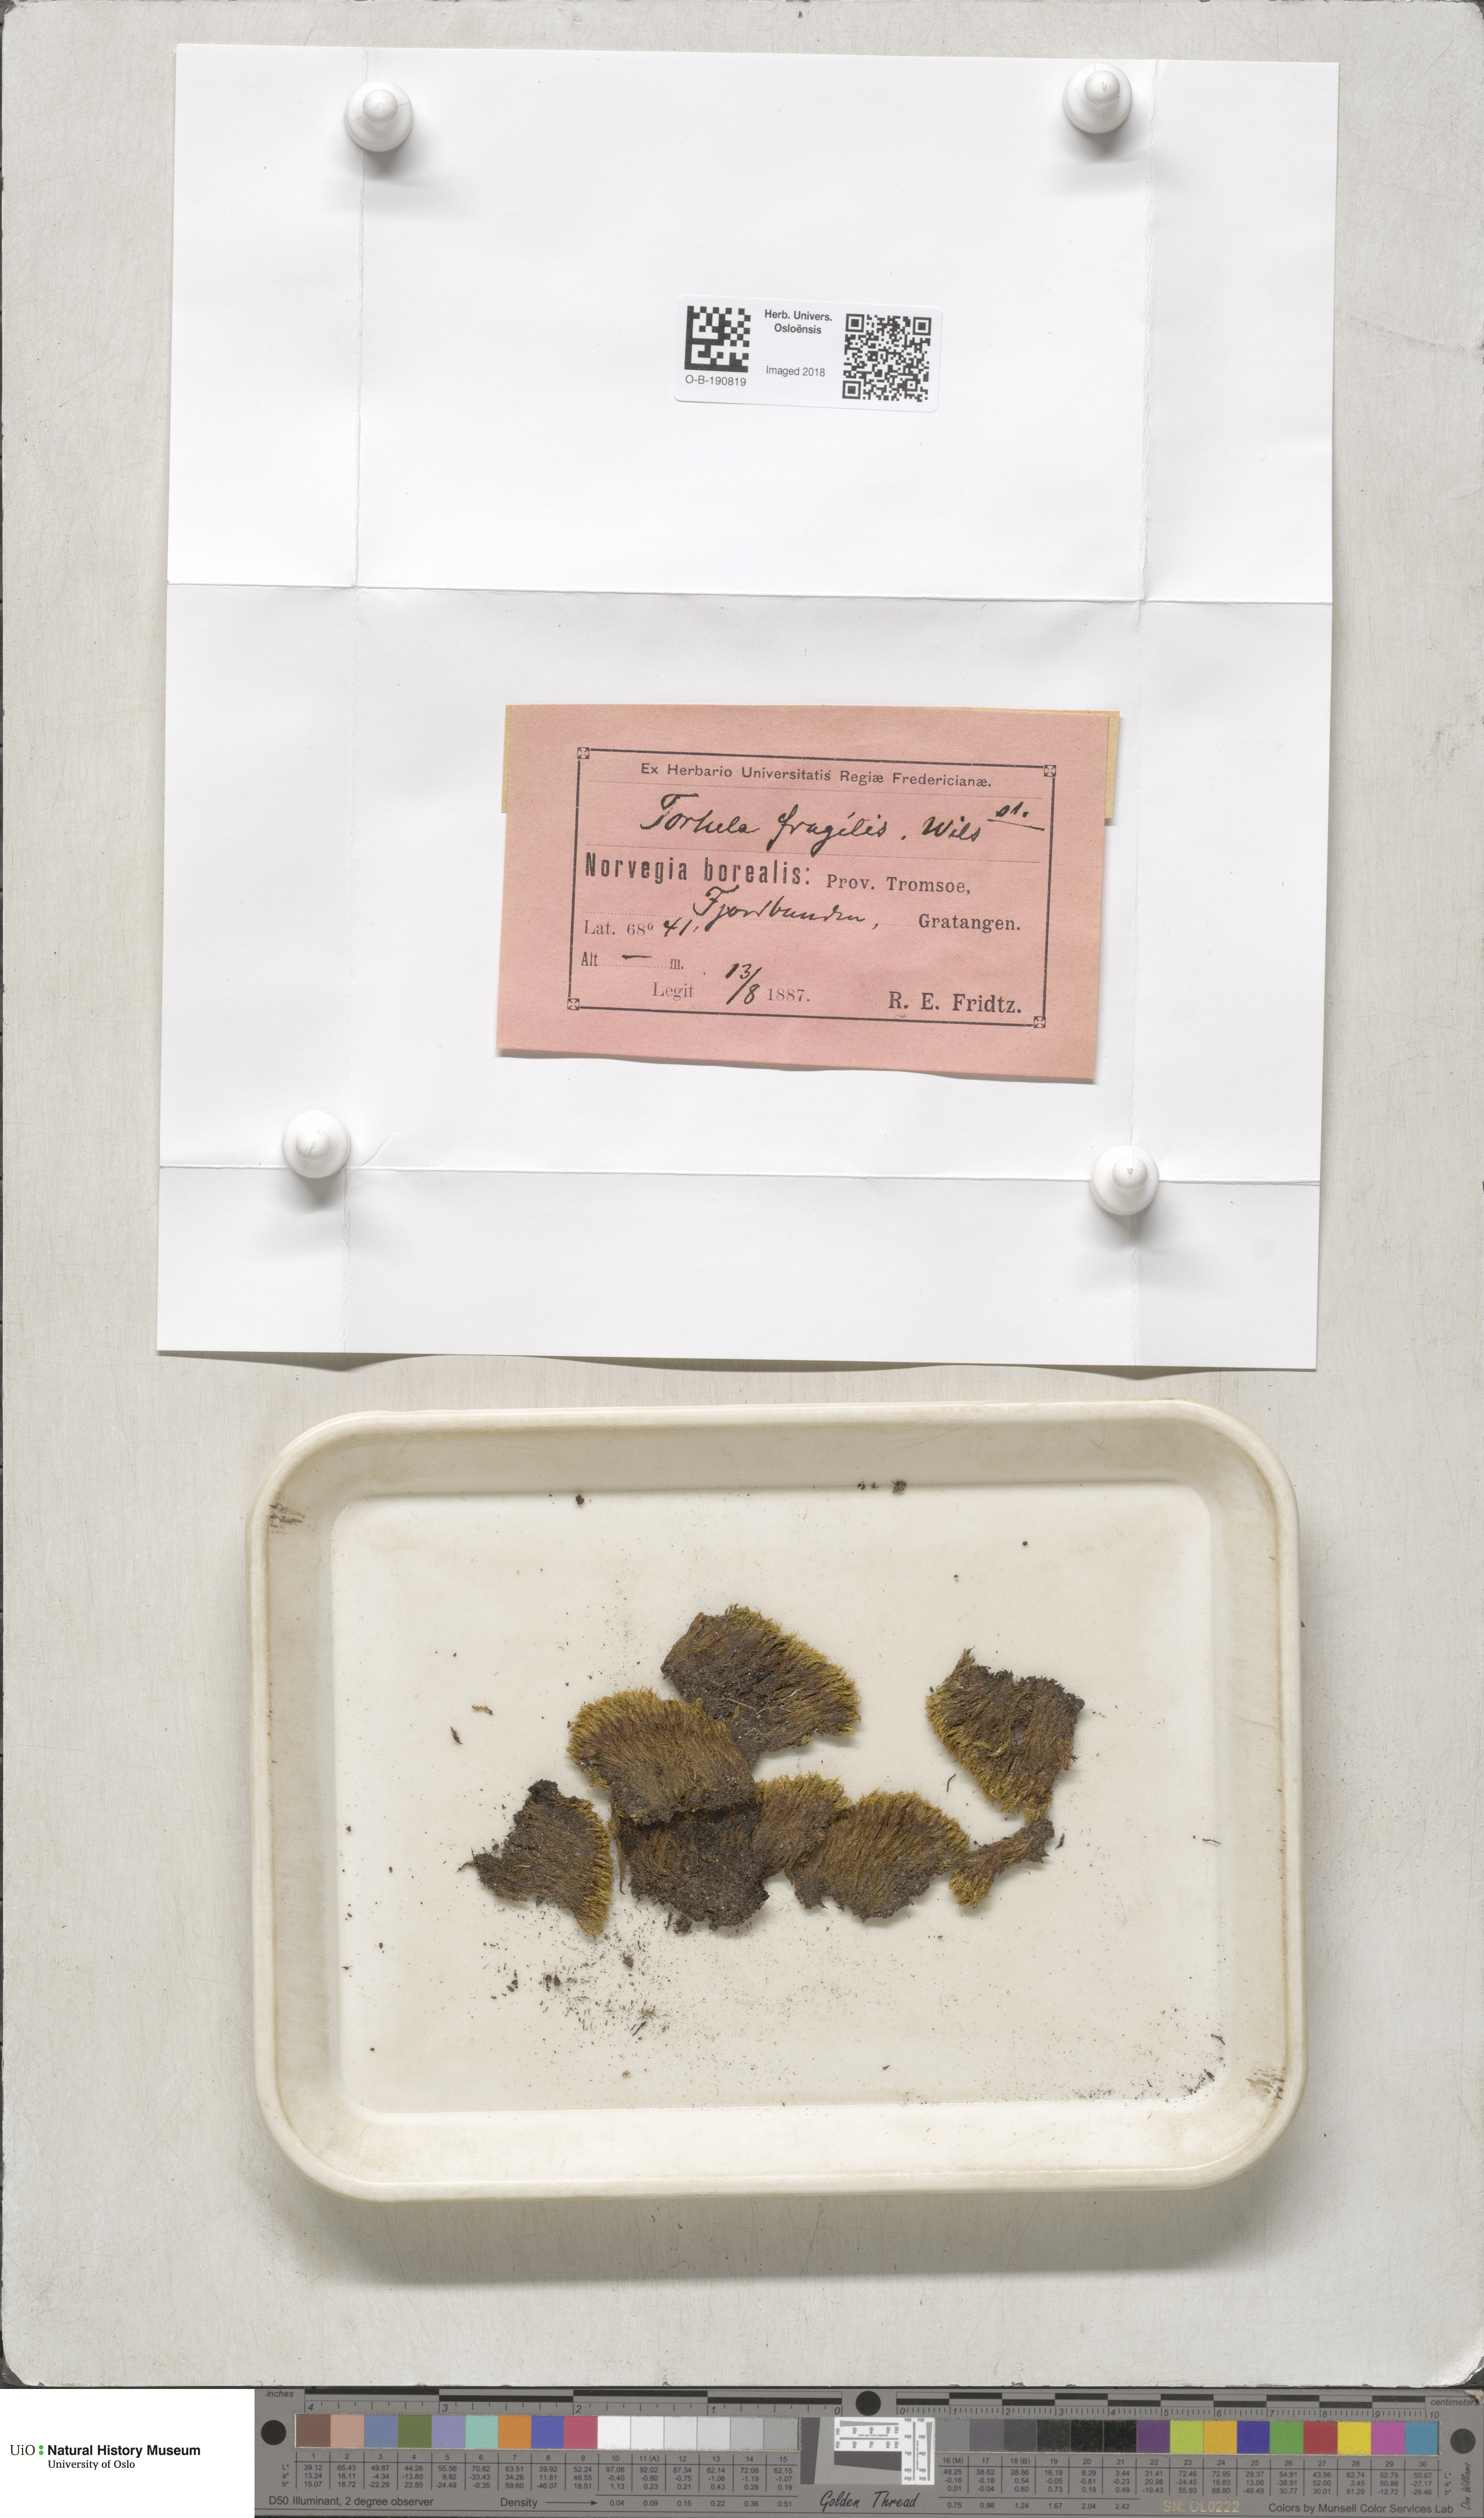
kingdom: Plantae
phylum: Bryophyta
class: Bryopsida
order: Pottiales
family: Pottiaceae
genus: Tortella
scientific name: Tortella fragilis
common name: Fragile twisted moss
